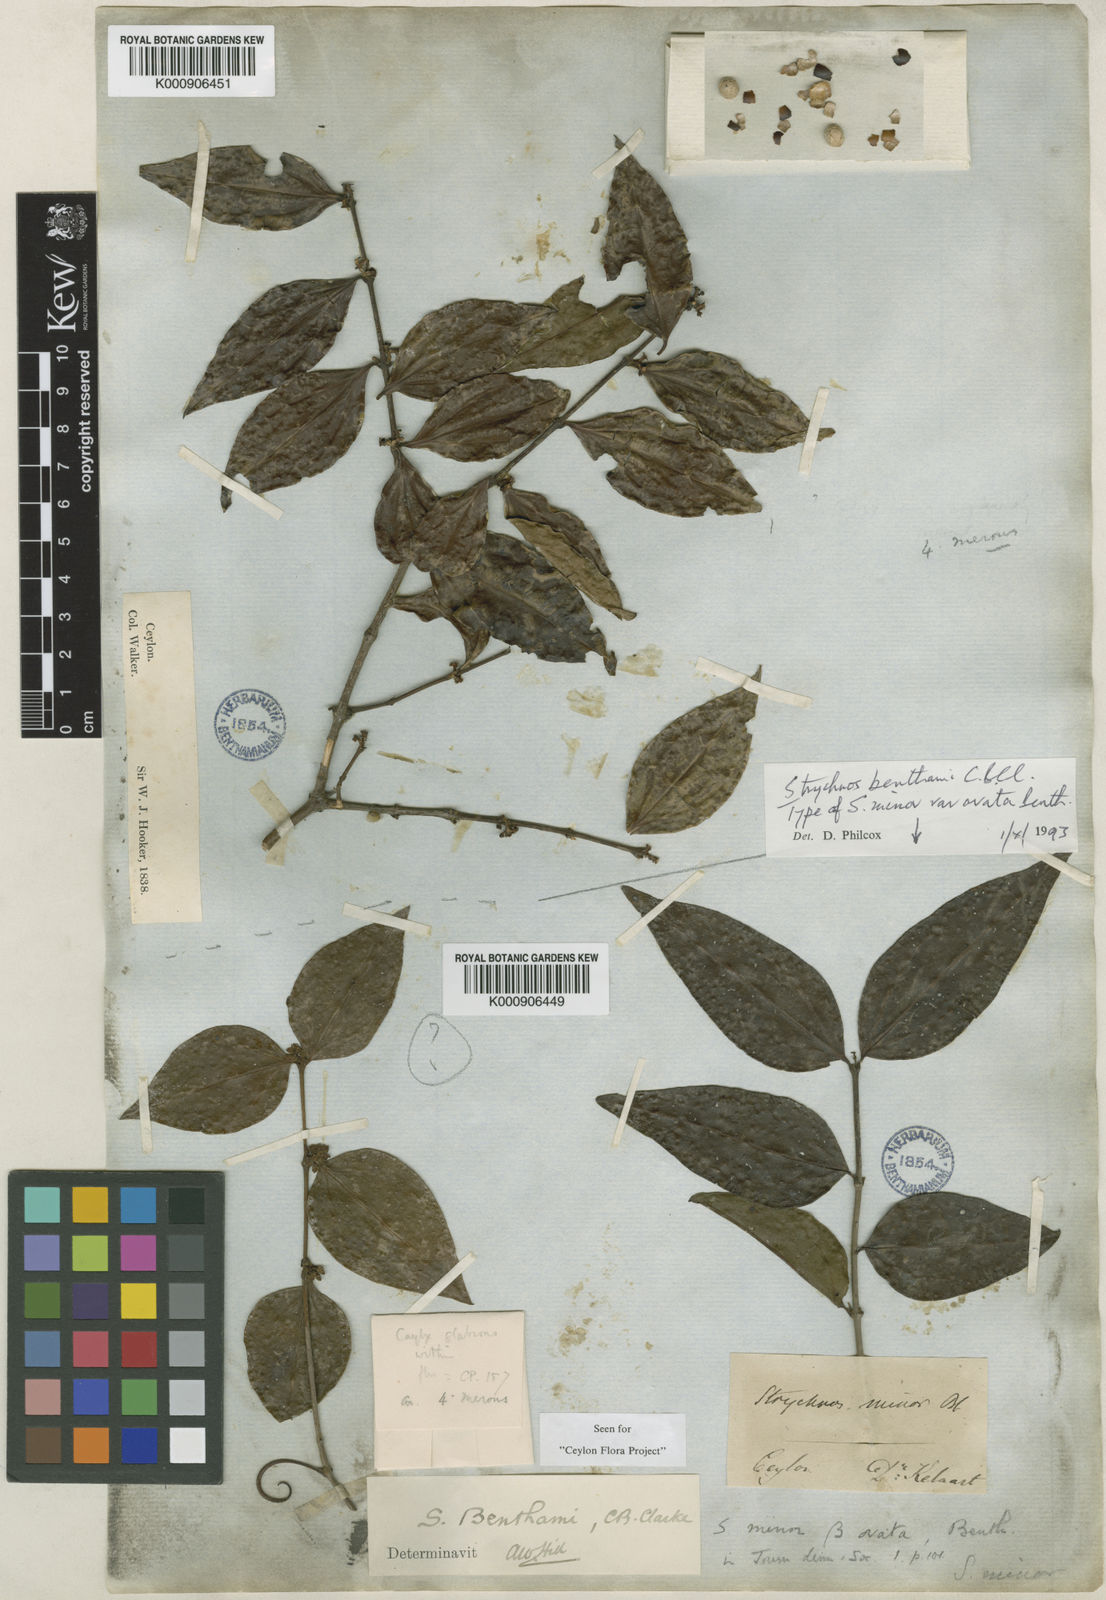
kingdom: Plantae
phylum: Tracheophyta
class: Magnoliopsida
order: Gentianales
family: Loganiaceae
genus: Strychnos
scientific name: Strychnos benthamii
